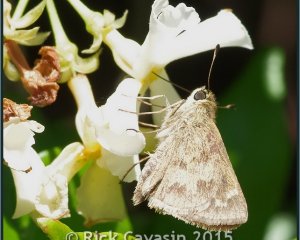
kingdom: Animalia
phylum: Arthropoda
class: Insecta
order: Lepidoptera
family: Hesperiidae
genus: Polites
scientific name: Polites vibex
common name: Whirlabout
